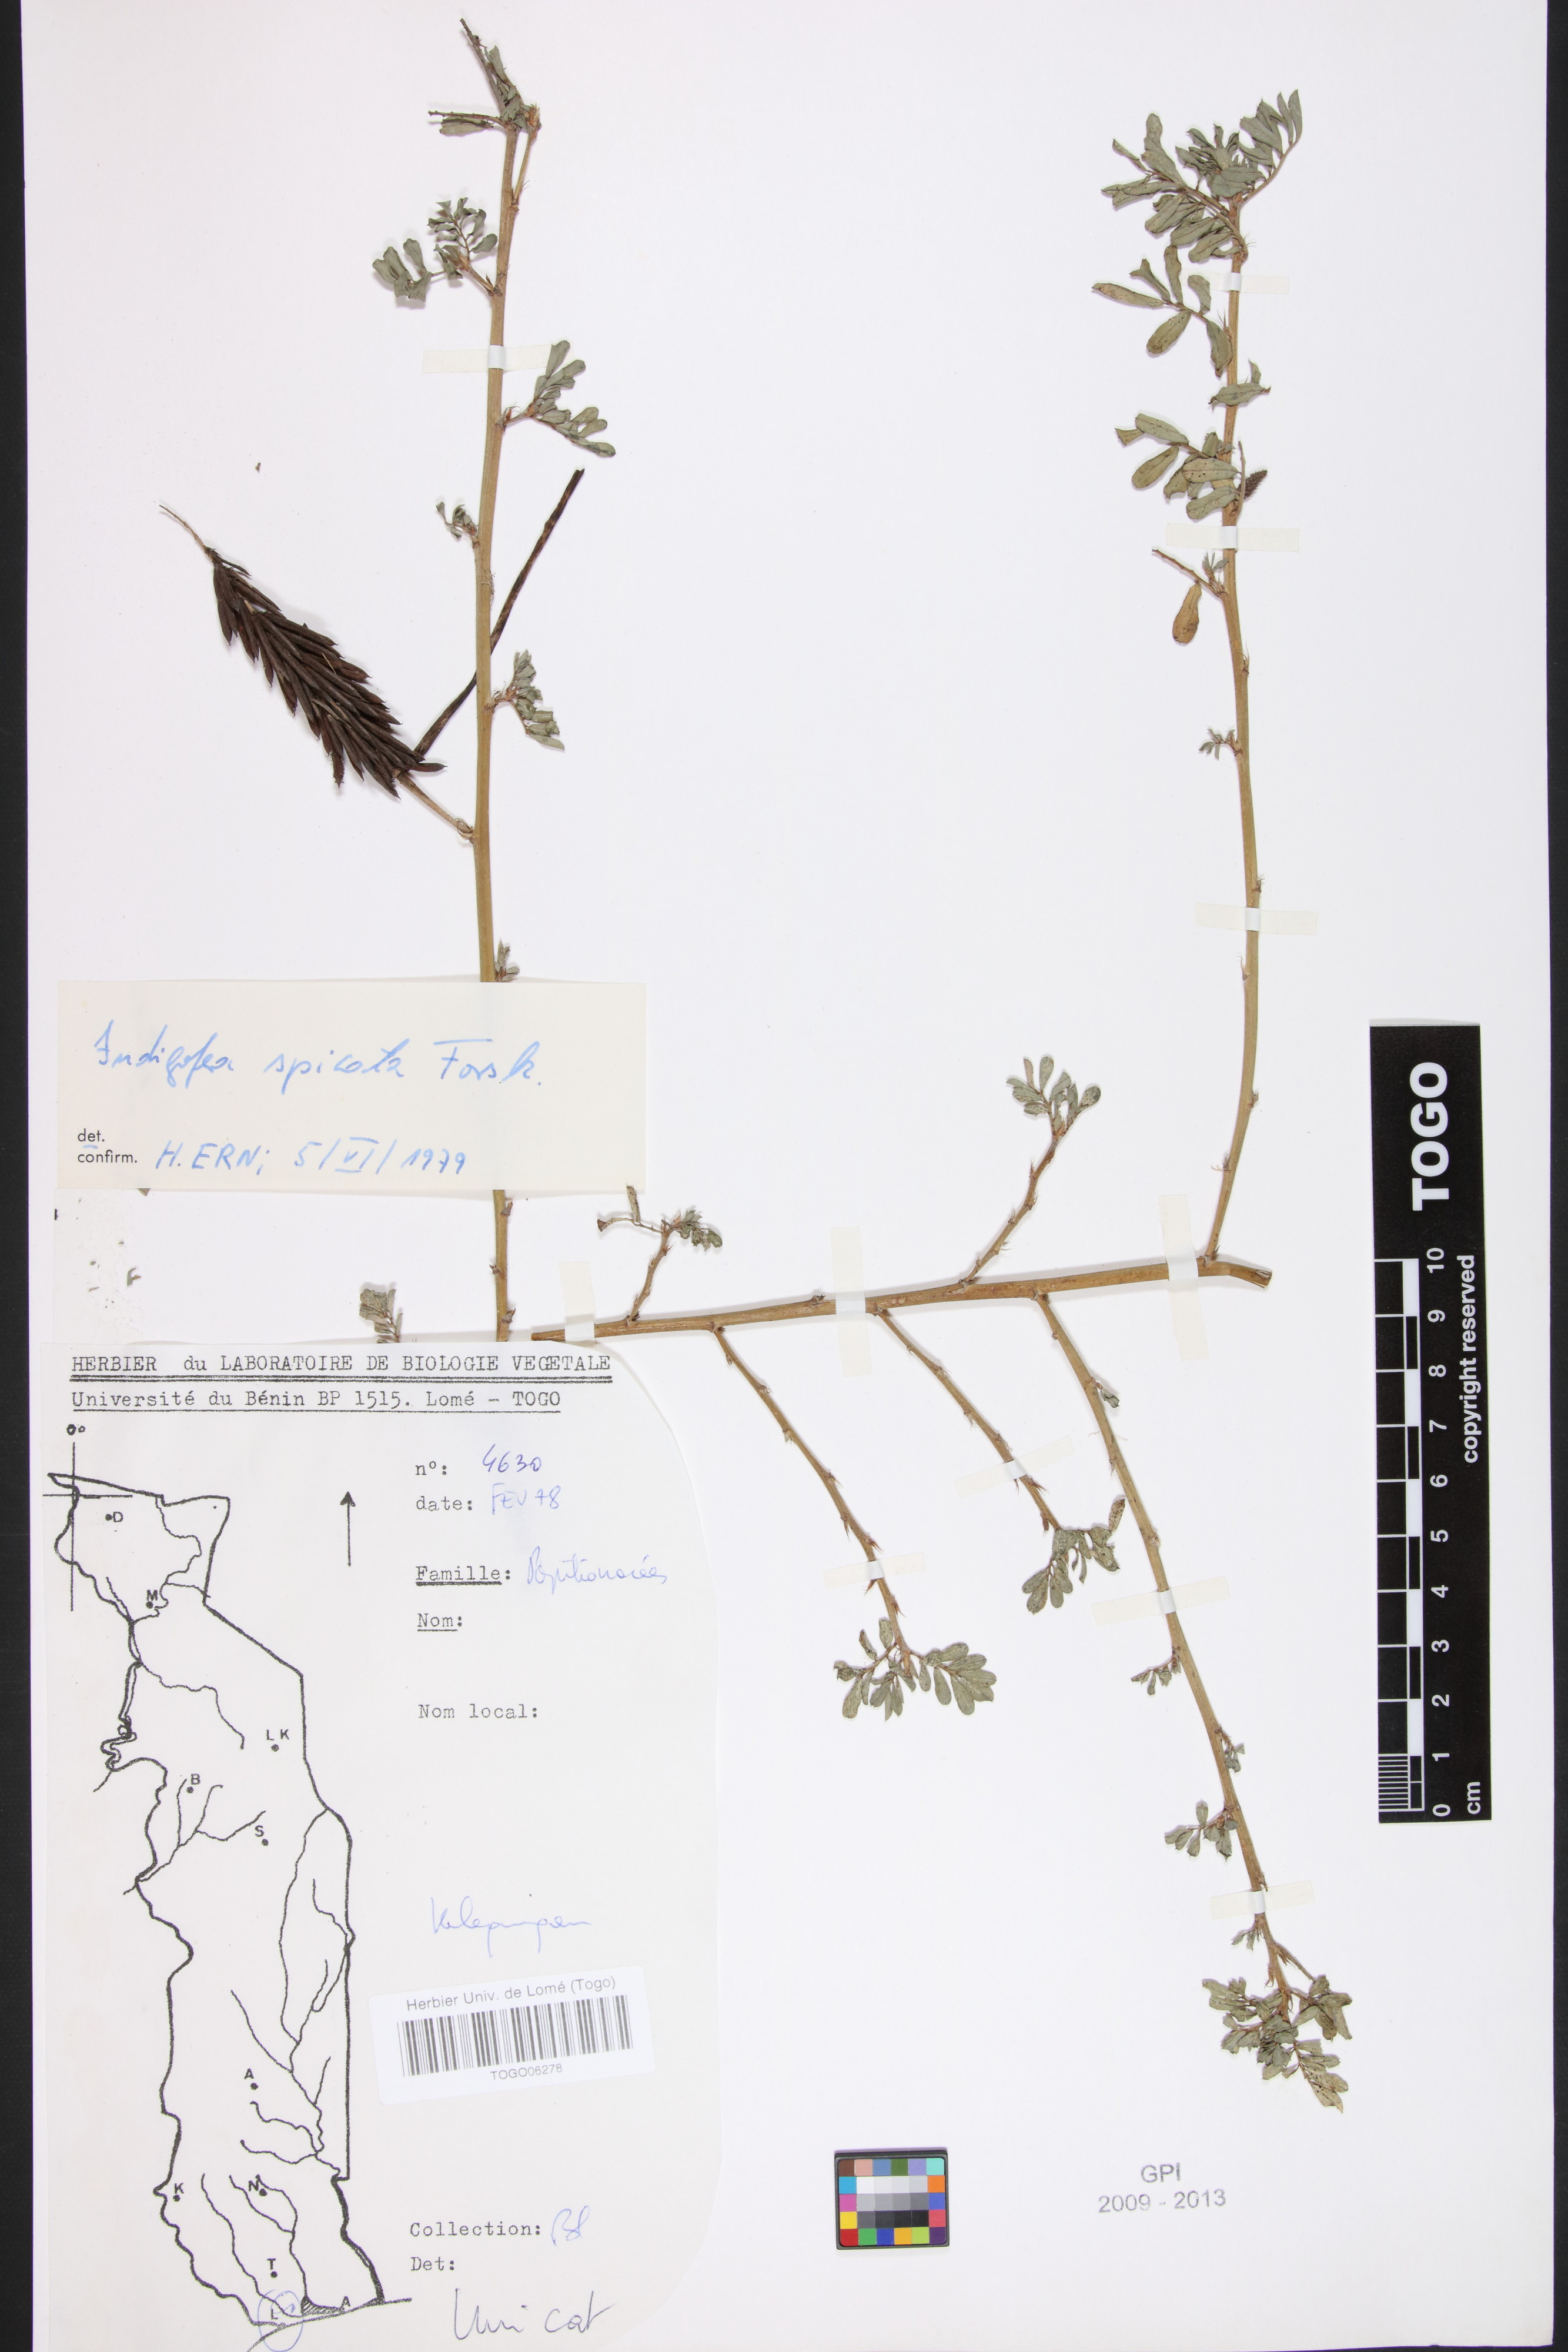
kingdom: Plantae
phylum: Tracheophyta
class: Magnoliopsida
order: Fabales
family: Fabaceae
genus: Indigofera
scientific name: Indigofera spicata
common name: Creeping indigo
